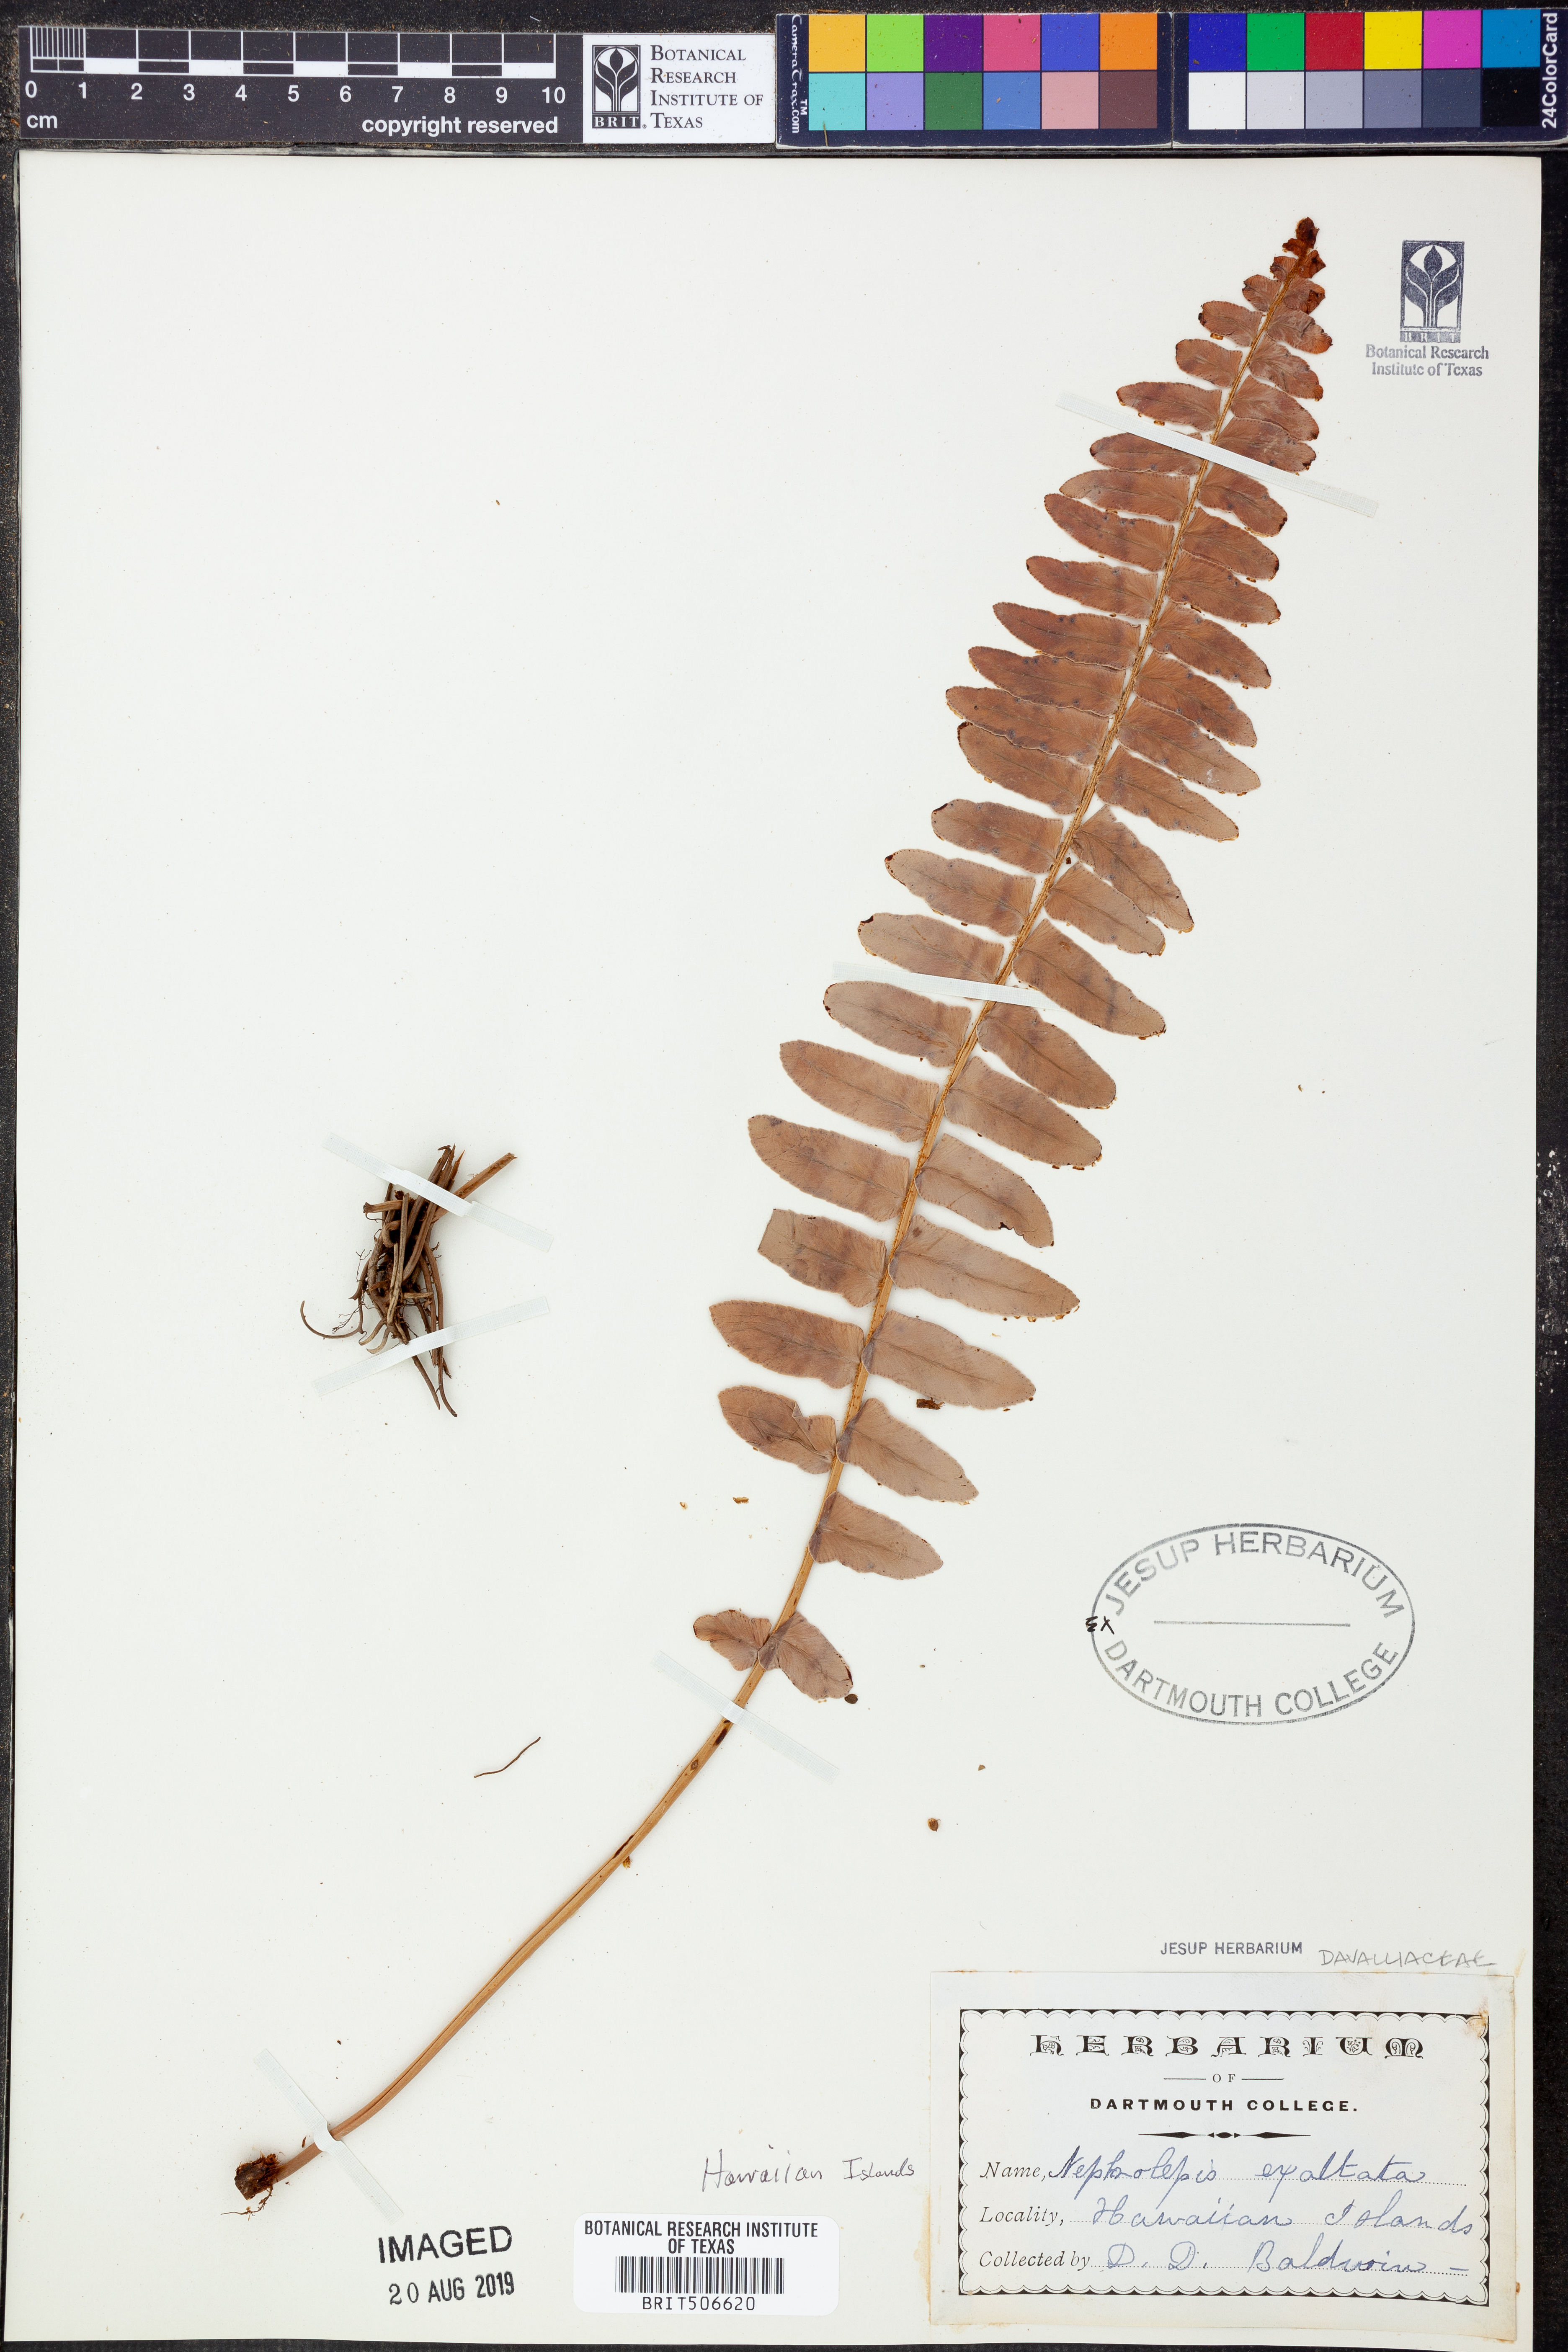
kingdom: Plantae
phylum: Tracheophyta
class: Polypodiopsida
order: Polypodiales
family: Nephrolepidaceae
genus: Nephrolepis
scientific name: Nephrolepis exaltata
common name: Sword fern
